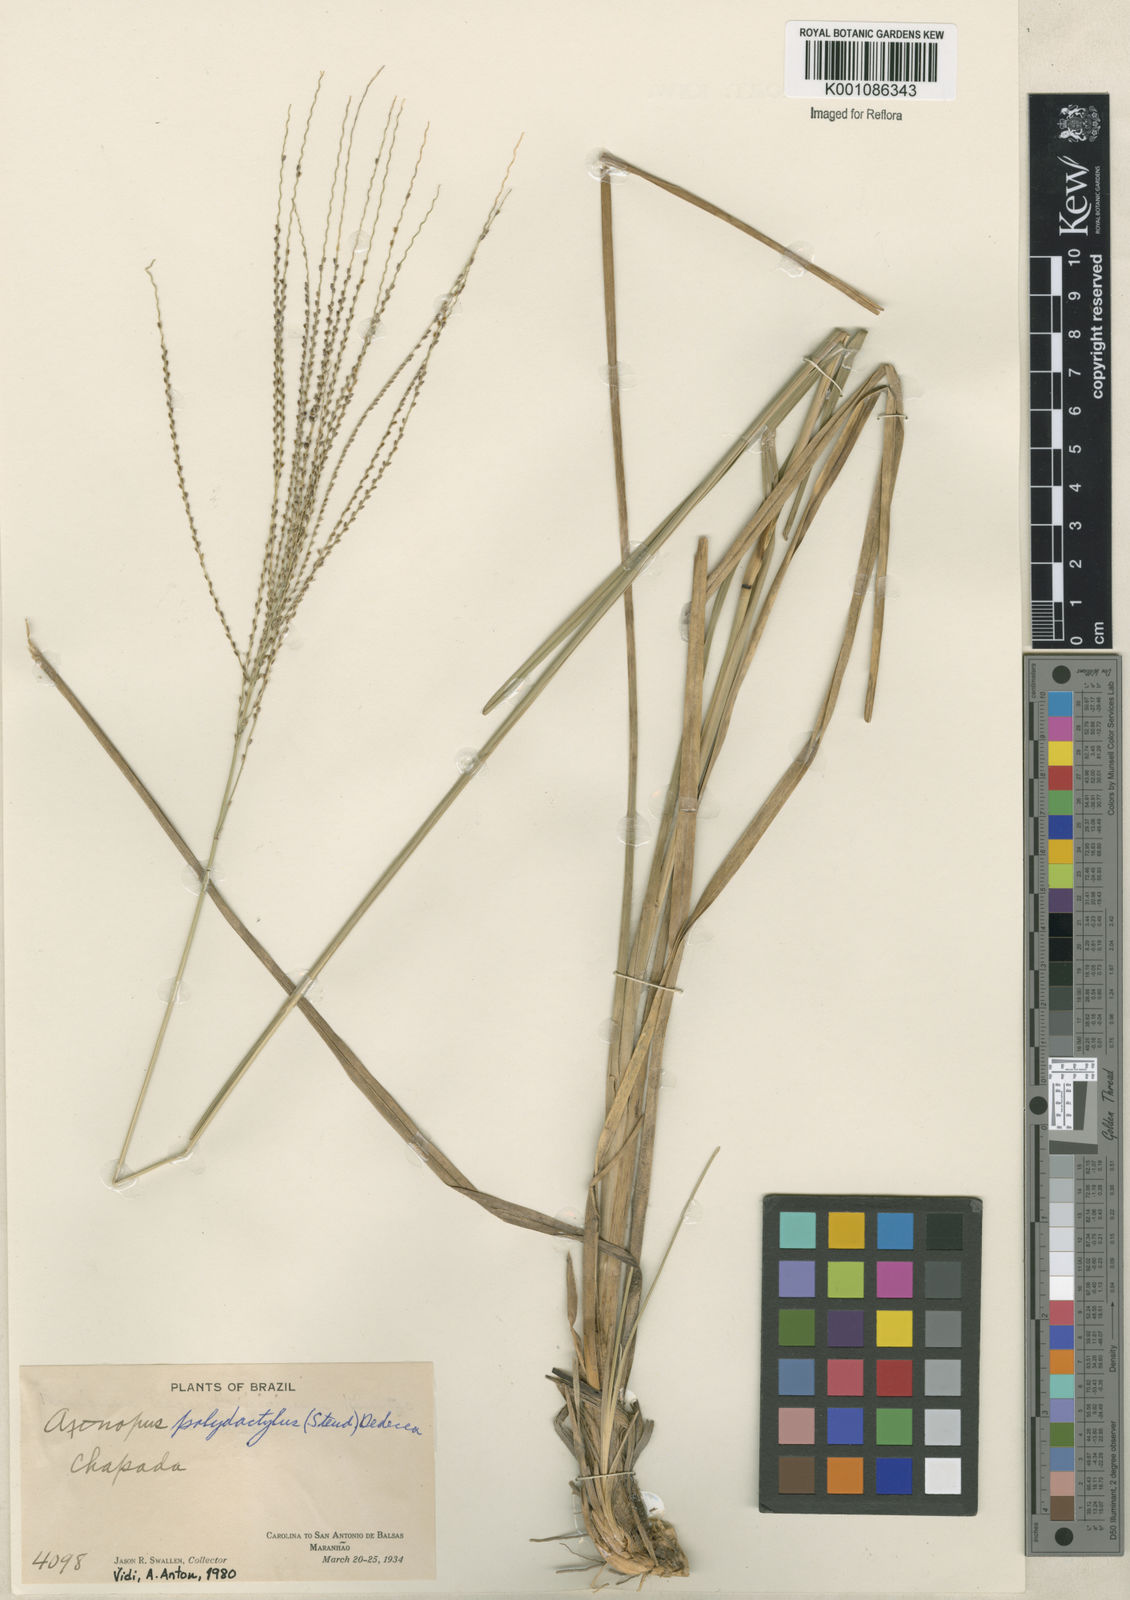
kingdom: Plantae
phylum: Tracheophyta
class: Liliopsida
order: Poales
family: Poaceae
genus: Axonopus
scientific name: Axonopus polydactylus
